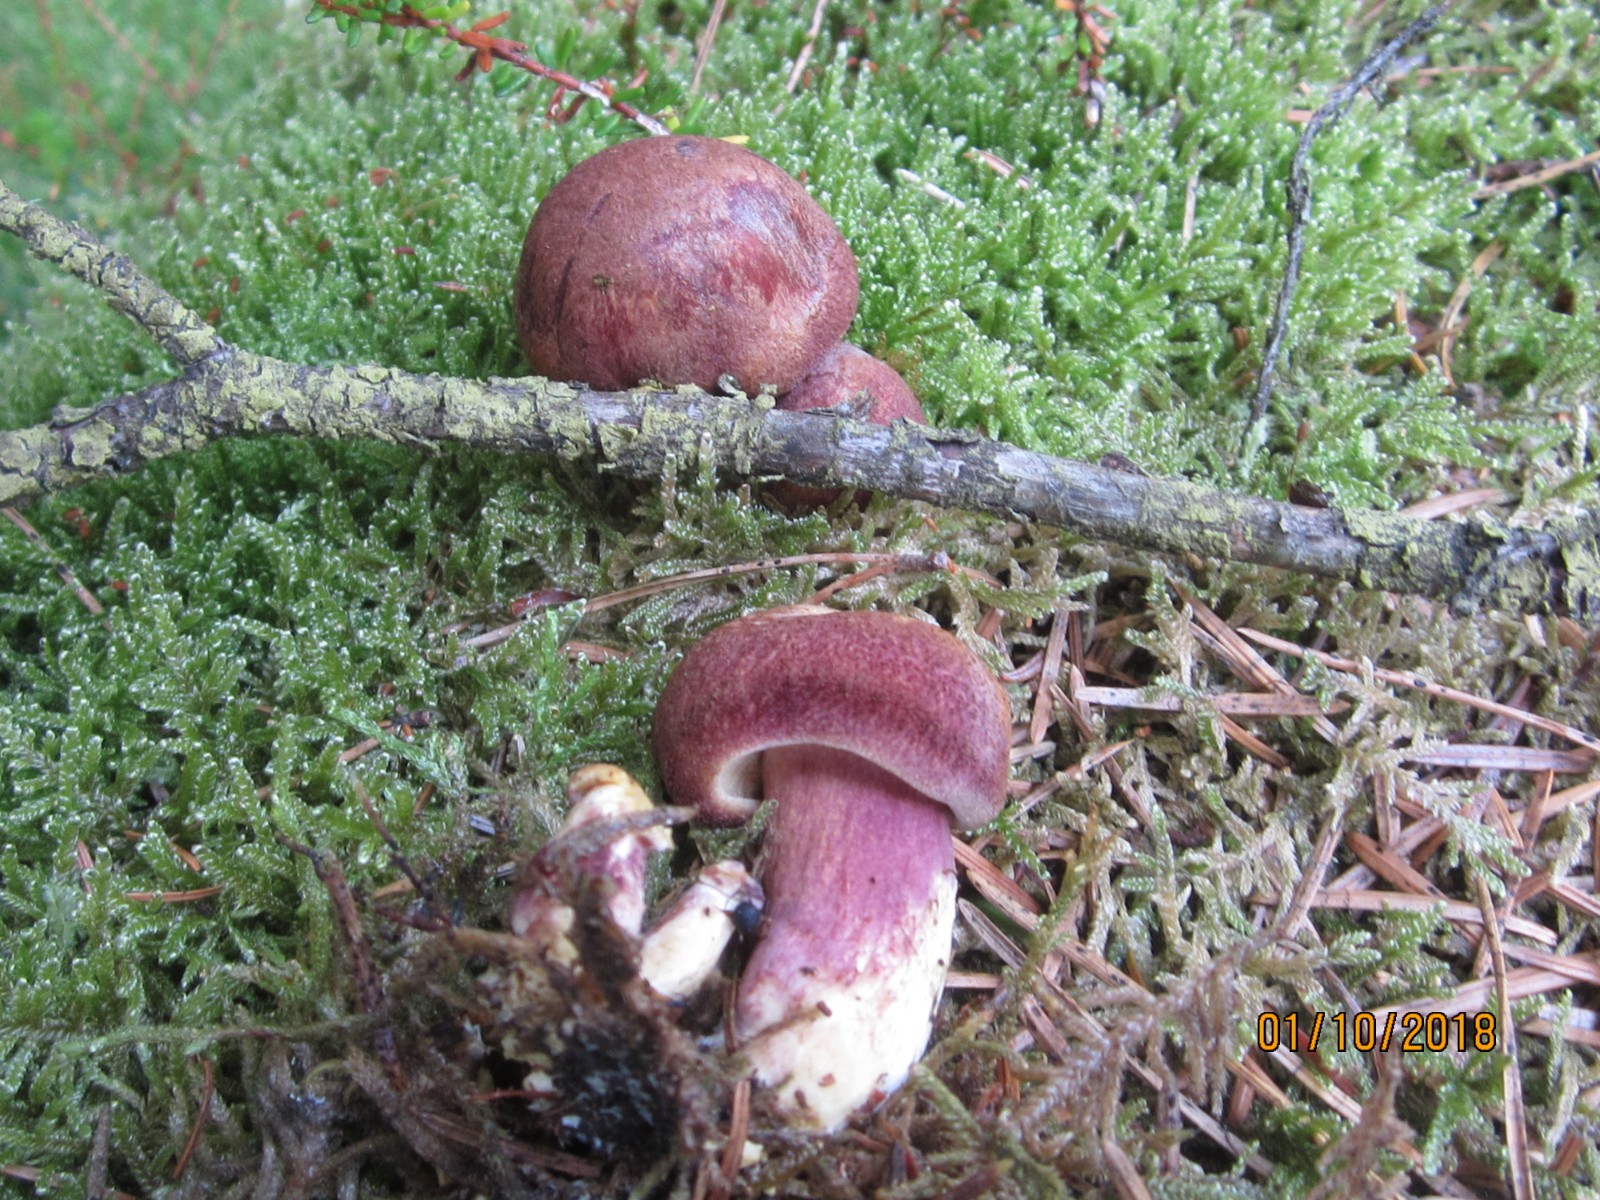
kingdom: Fungi
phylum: Basidiomycota
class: Agaricomycetes
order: Agaricales
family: Tricholomataceae
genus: Tricholomopsis
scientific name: Tricholomopsis rutilans
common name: purpur-væbnerhat
